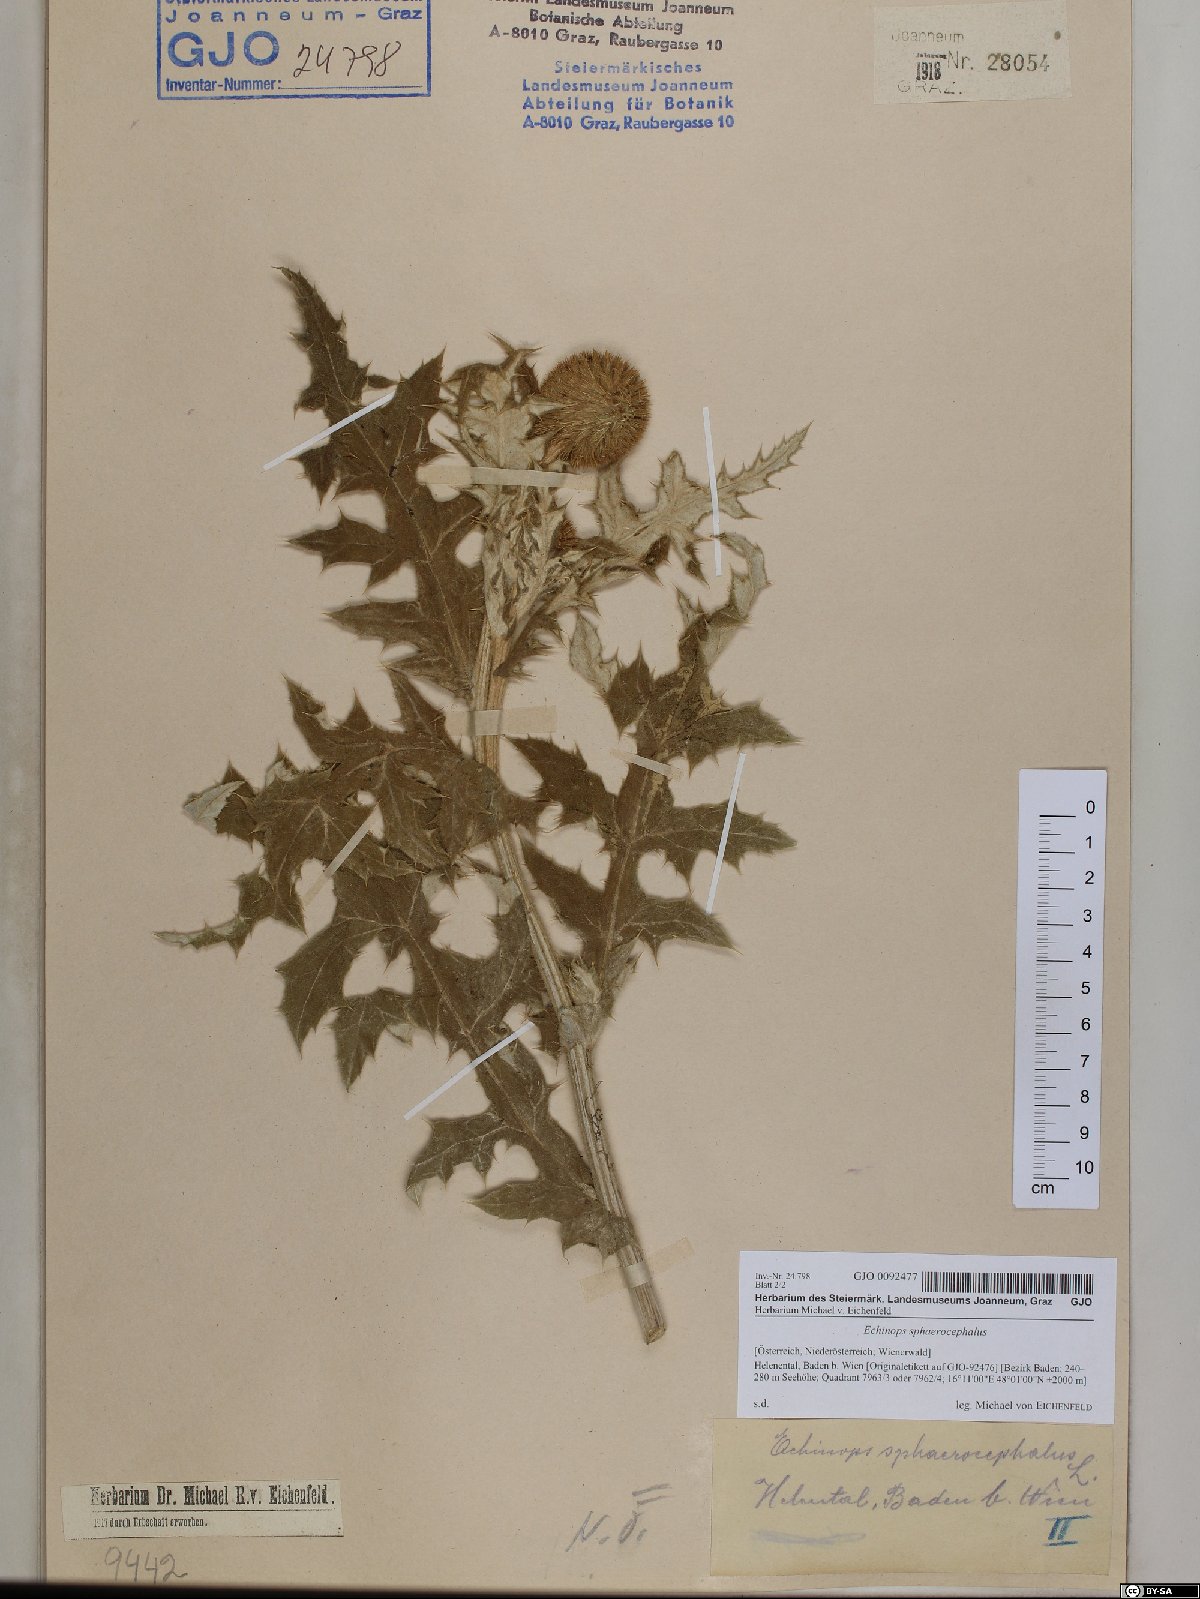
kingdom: Plantae
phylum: Tracheophyta
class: Magnoliopsida
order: Asterales
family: Asteraceae
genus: Echinops
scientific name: Echinops sphaerocephalus
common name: Glandular globe-thistle
